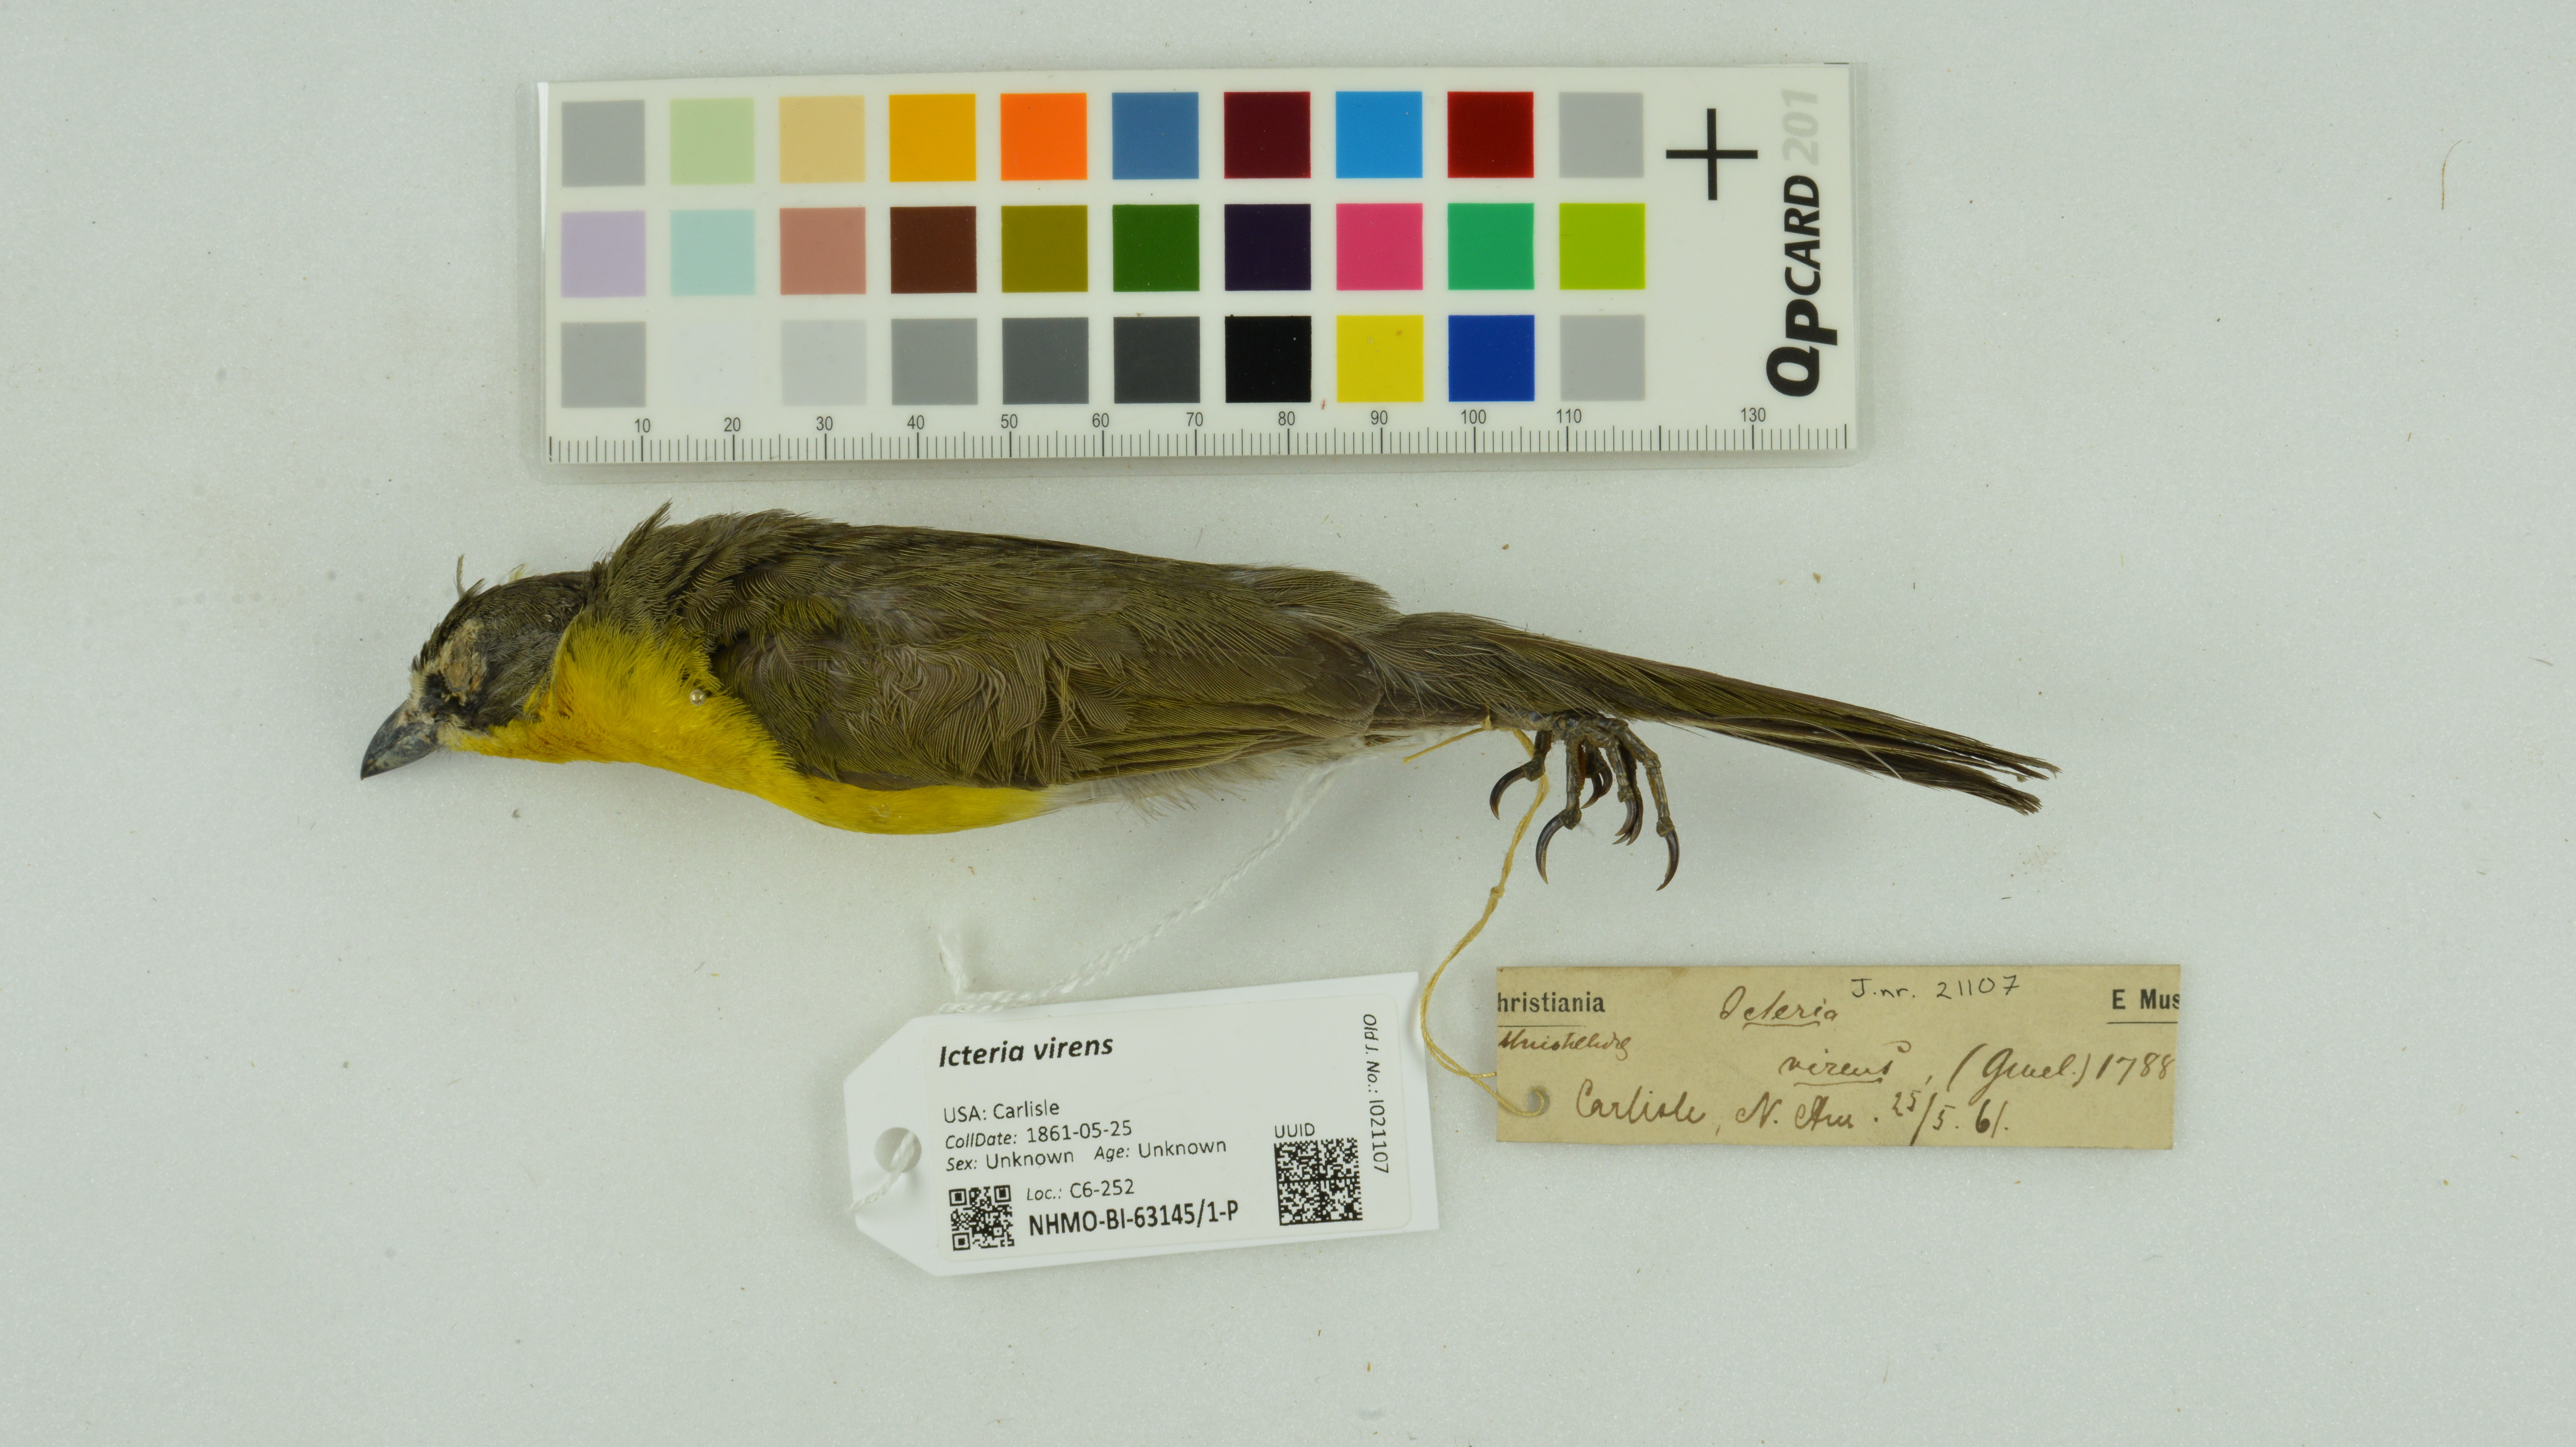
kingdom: Animalia
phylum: Chordata
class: Aves
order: Passeriformes
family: Parulidae
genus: Icteria
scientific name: Icteria virens
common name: Yellow-breasted chat
